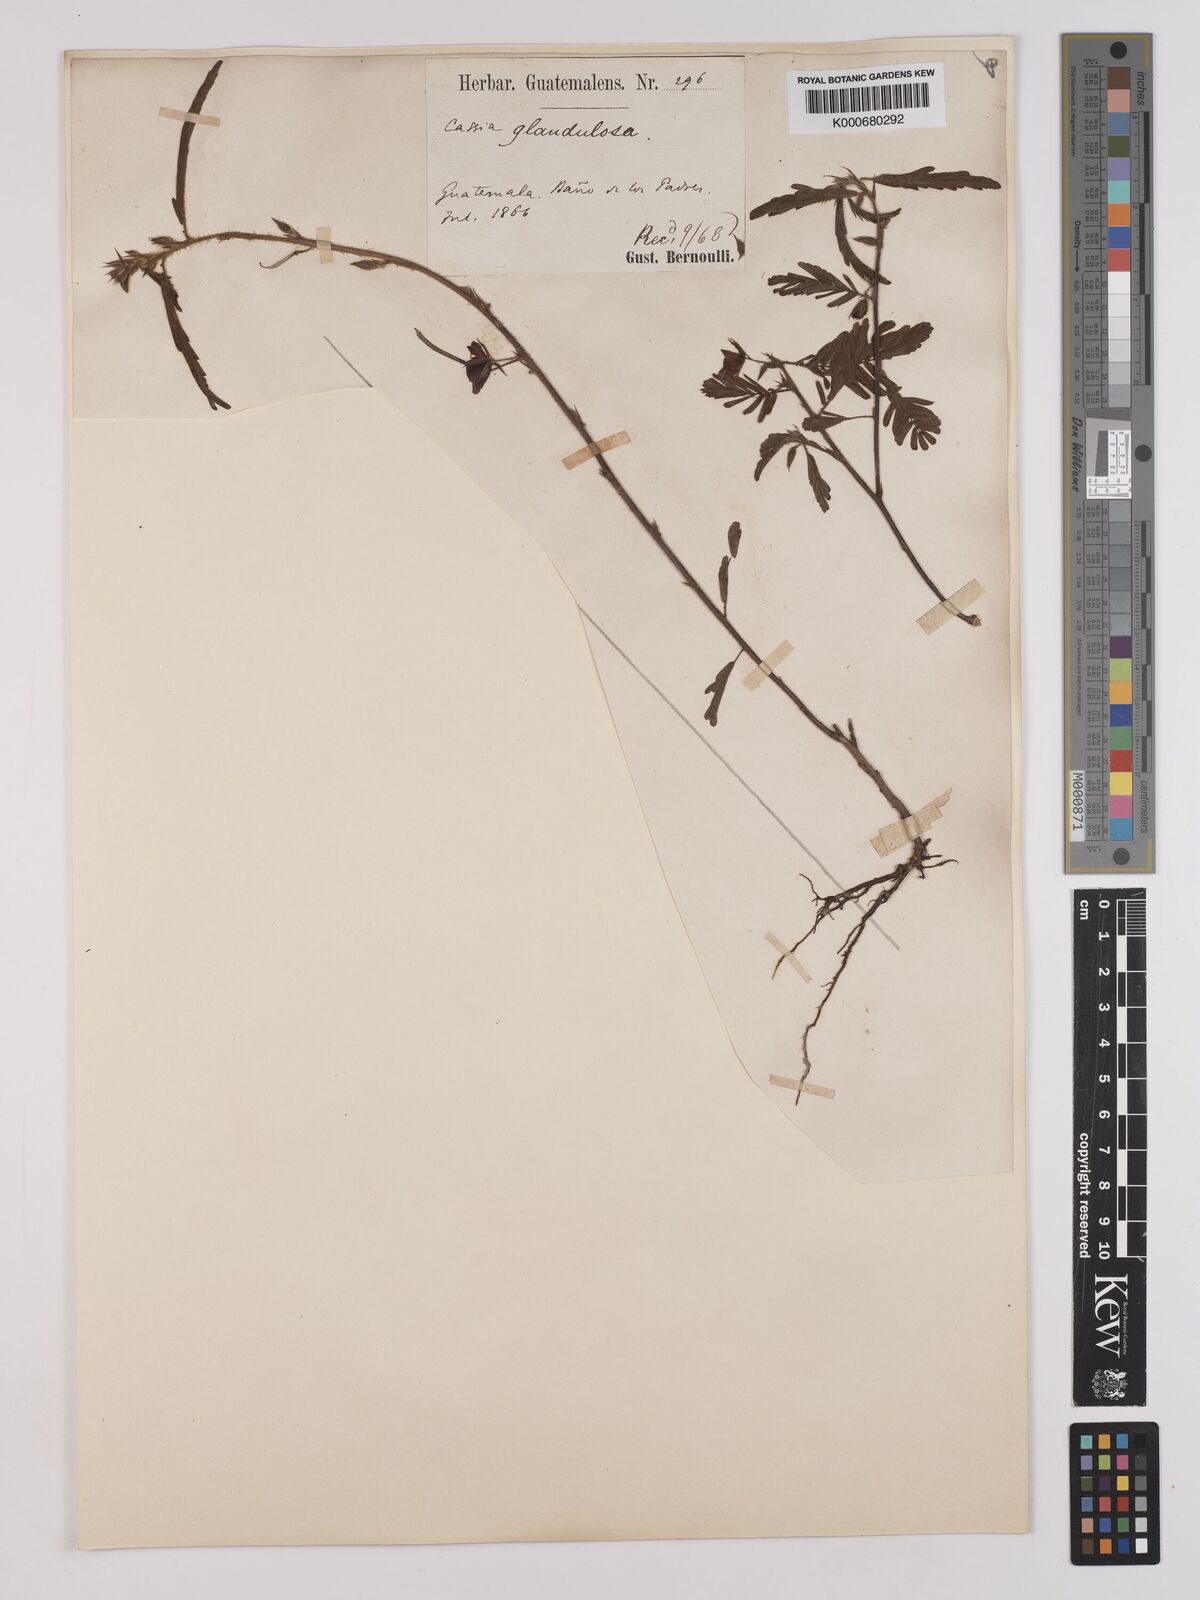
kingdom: Plantae
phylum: Tracheophyta
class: Magnoliopsida
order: Fabales
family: Fabaceae
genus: Chamaecrista
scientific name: Chamaecrista glandulosa
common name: Wild peas
